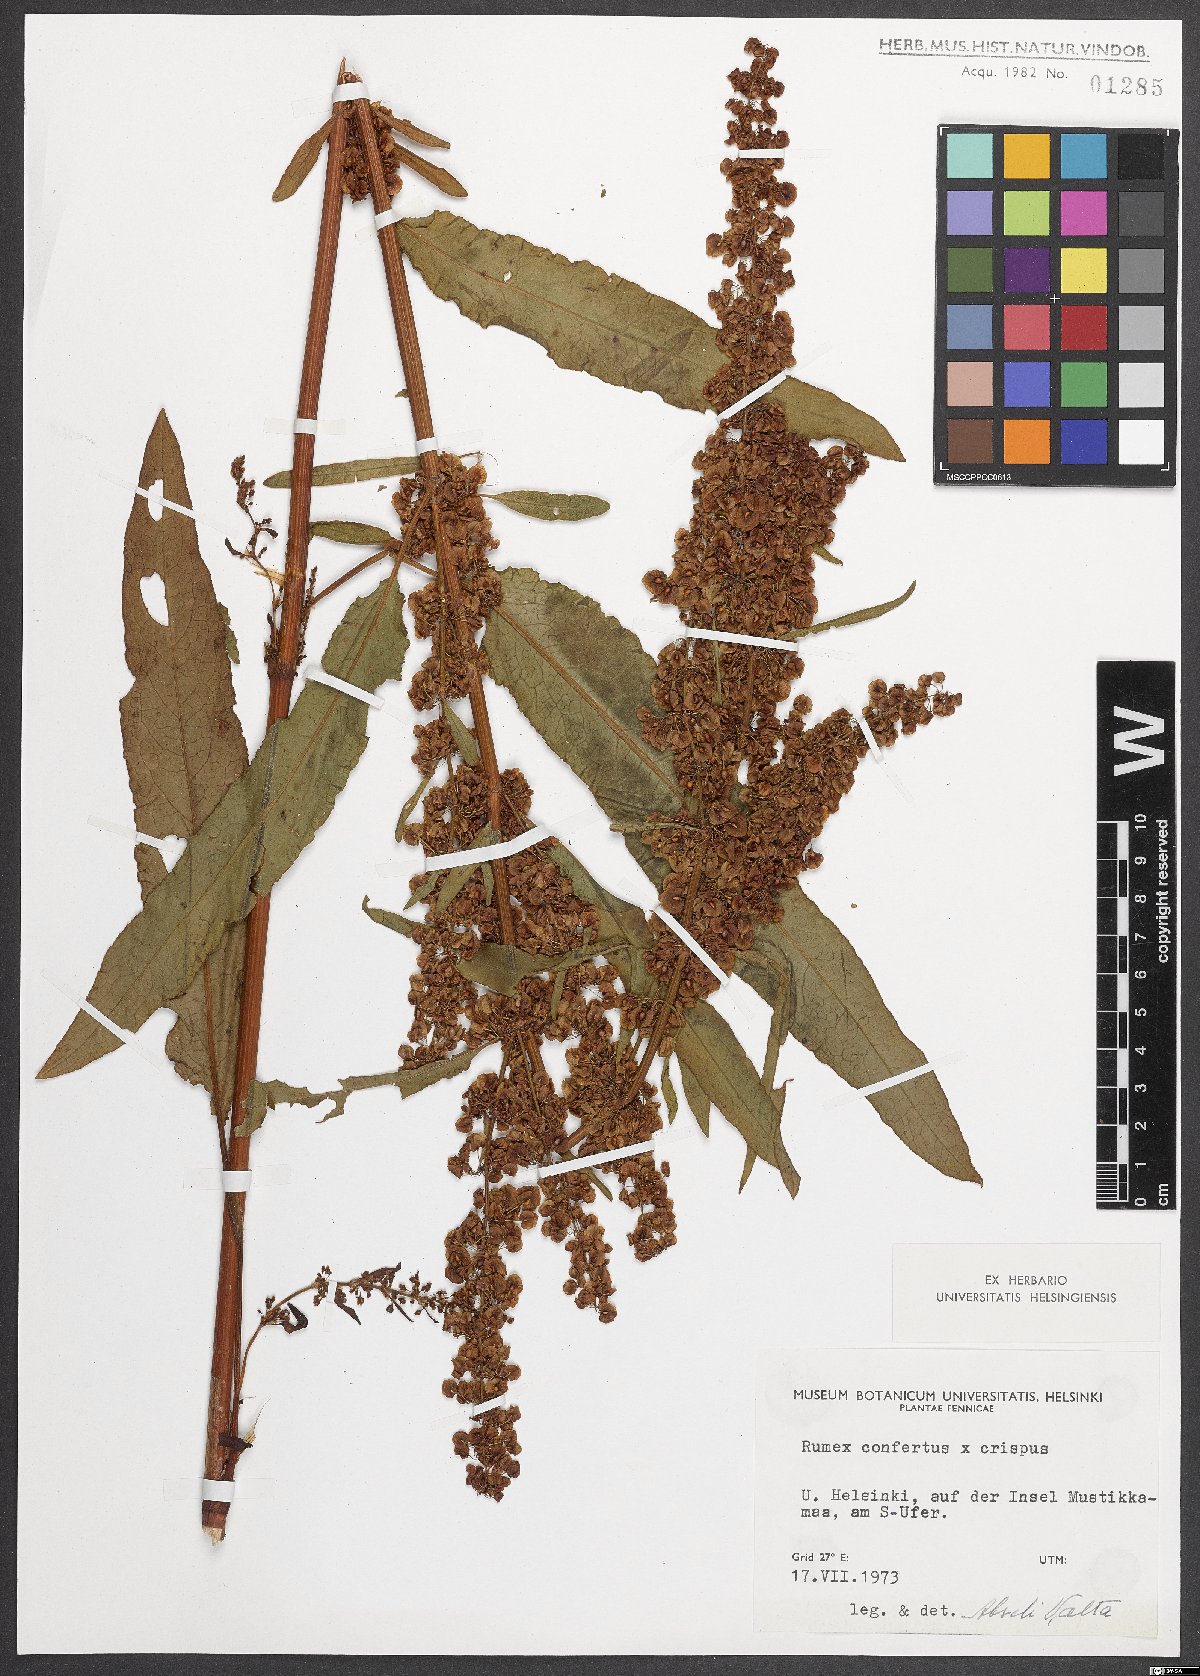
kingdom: Plantae
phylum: Tracheophyta
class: Magnoliopsida
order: Caryophyllales
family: Polygonaceae
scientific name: Polygonaceae
